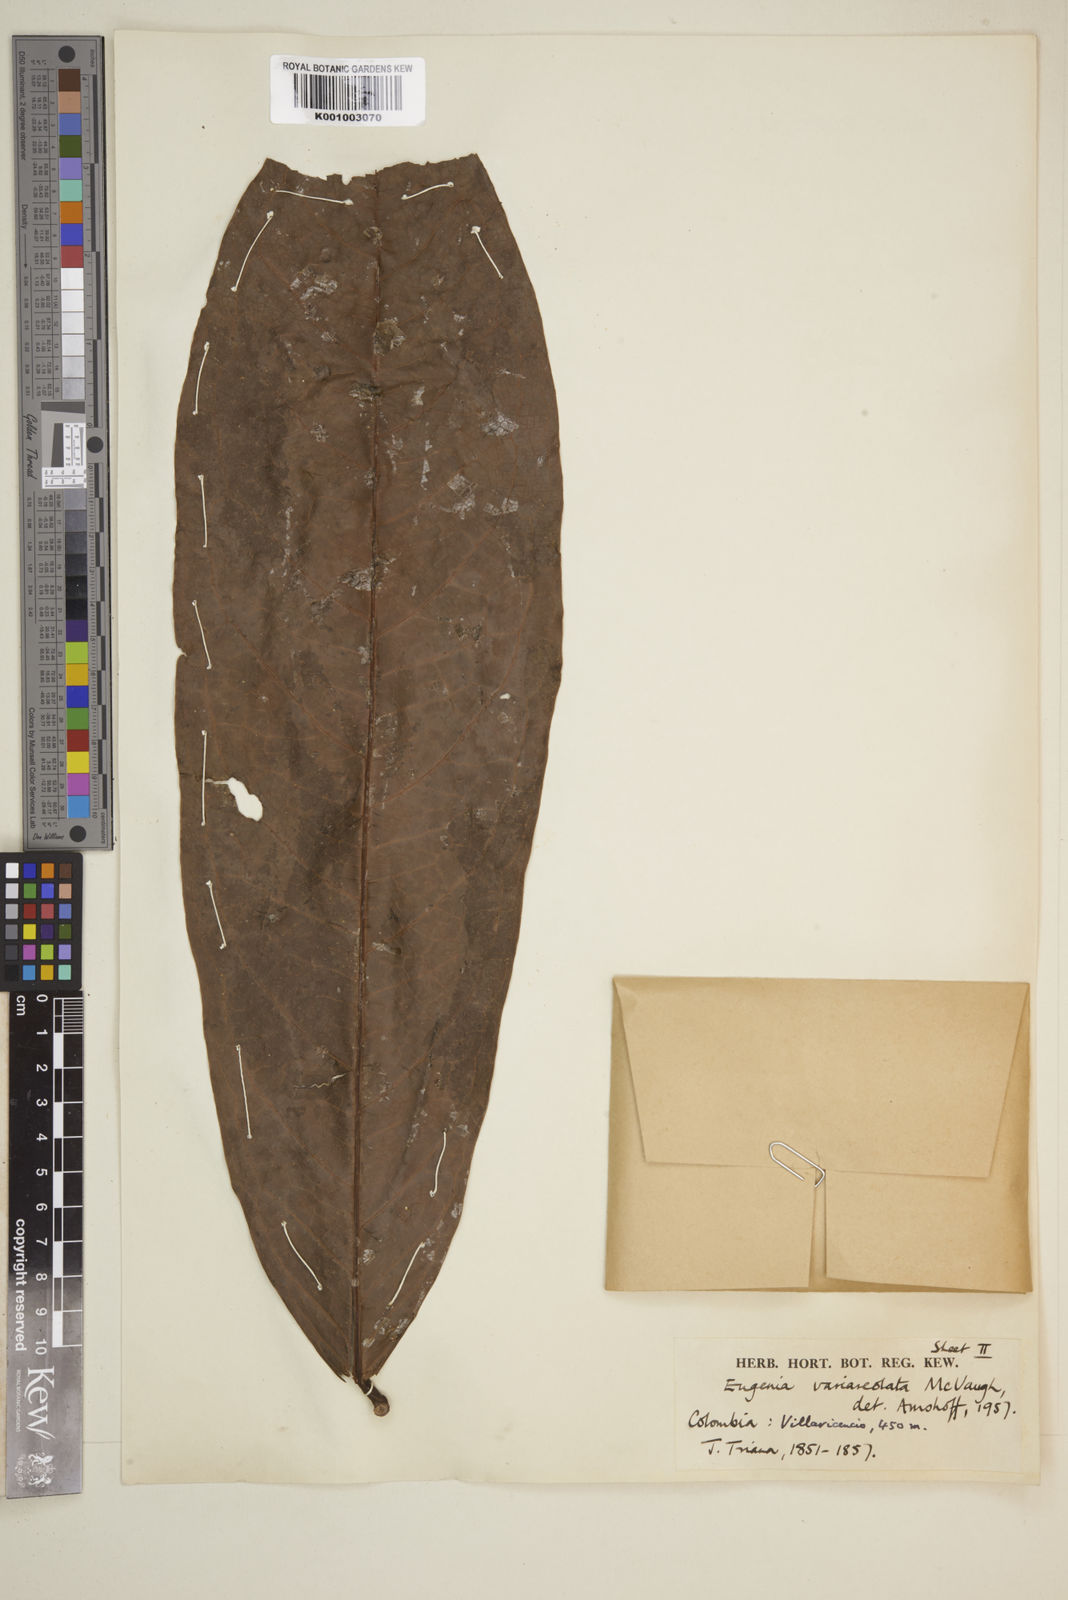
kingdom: Plantae
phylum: Tracheophyta
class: Magnoliopsida
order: Myrtales
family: Myrtaceae
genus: Eugenia
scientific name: Eugenia variareolata
